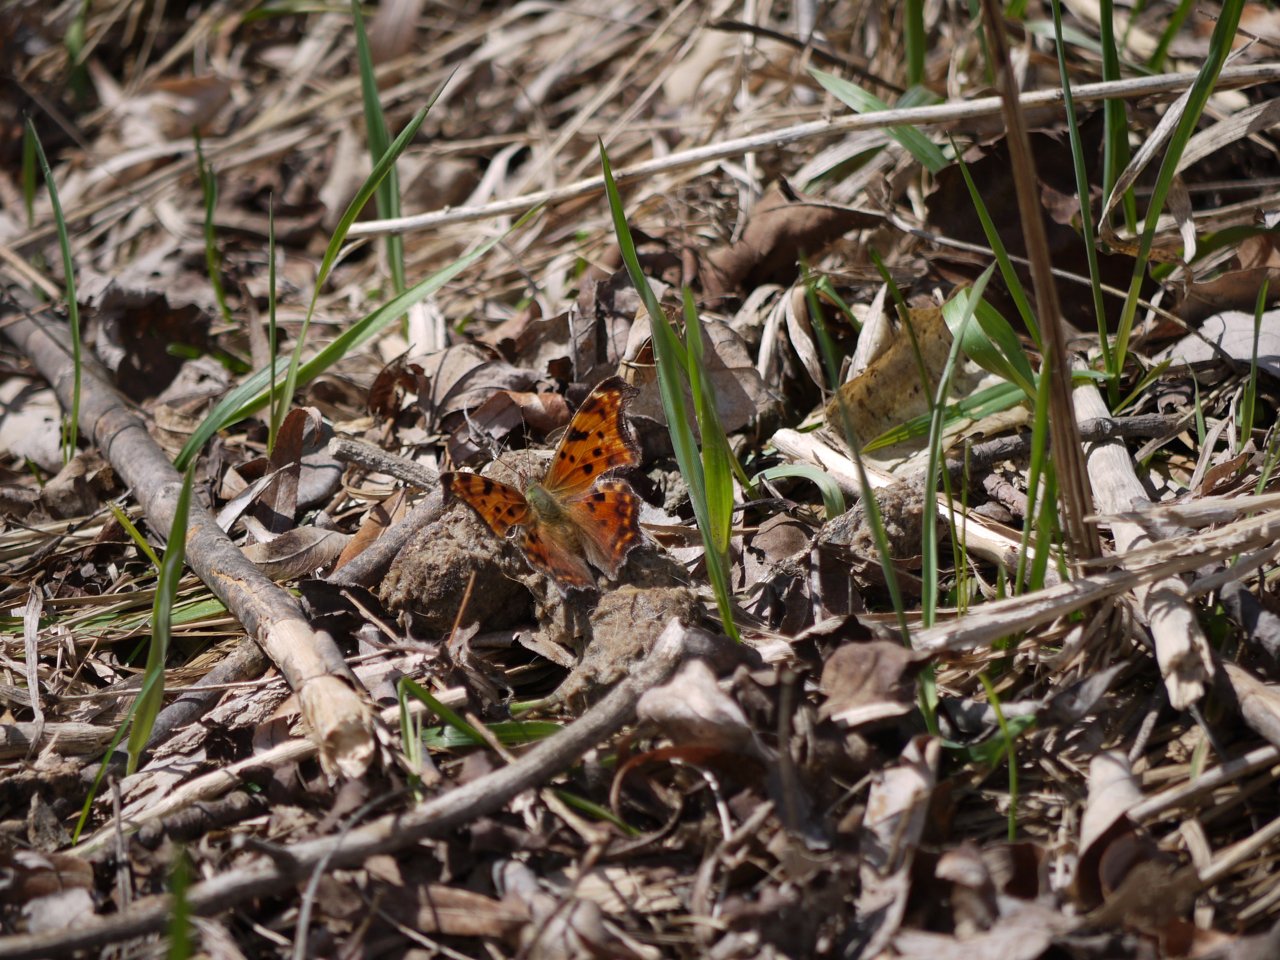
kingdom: Animalia
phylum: Arthropoda
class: Insecta
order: Lepidoptera
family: Nymphalidae
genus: Polygonia
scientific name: Polygonia comma
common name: Eastern Comma
